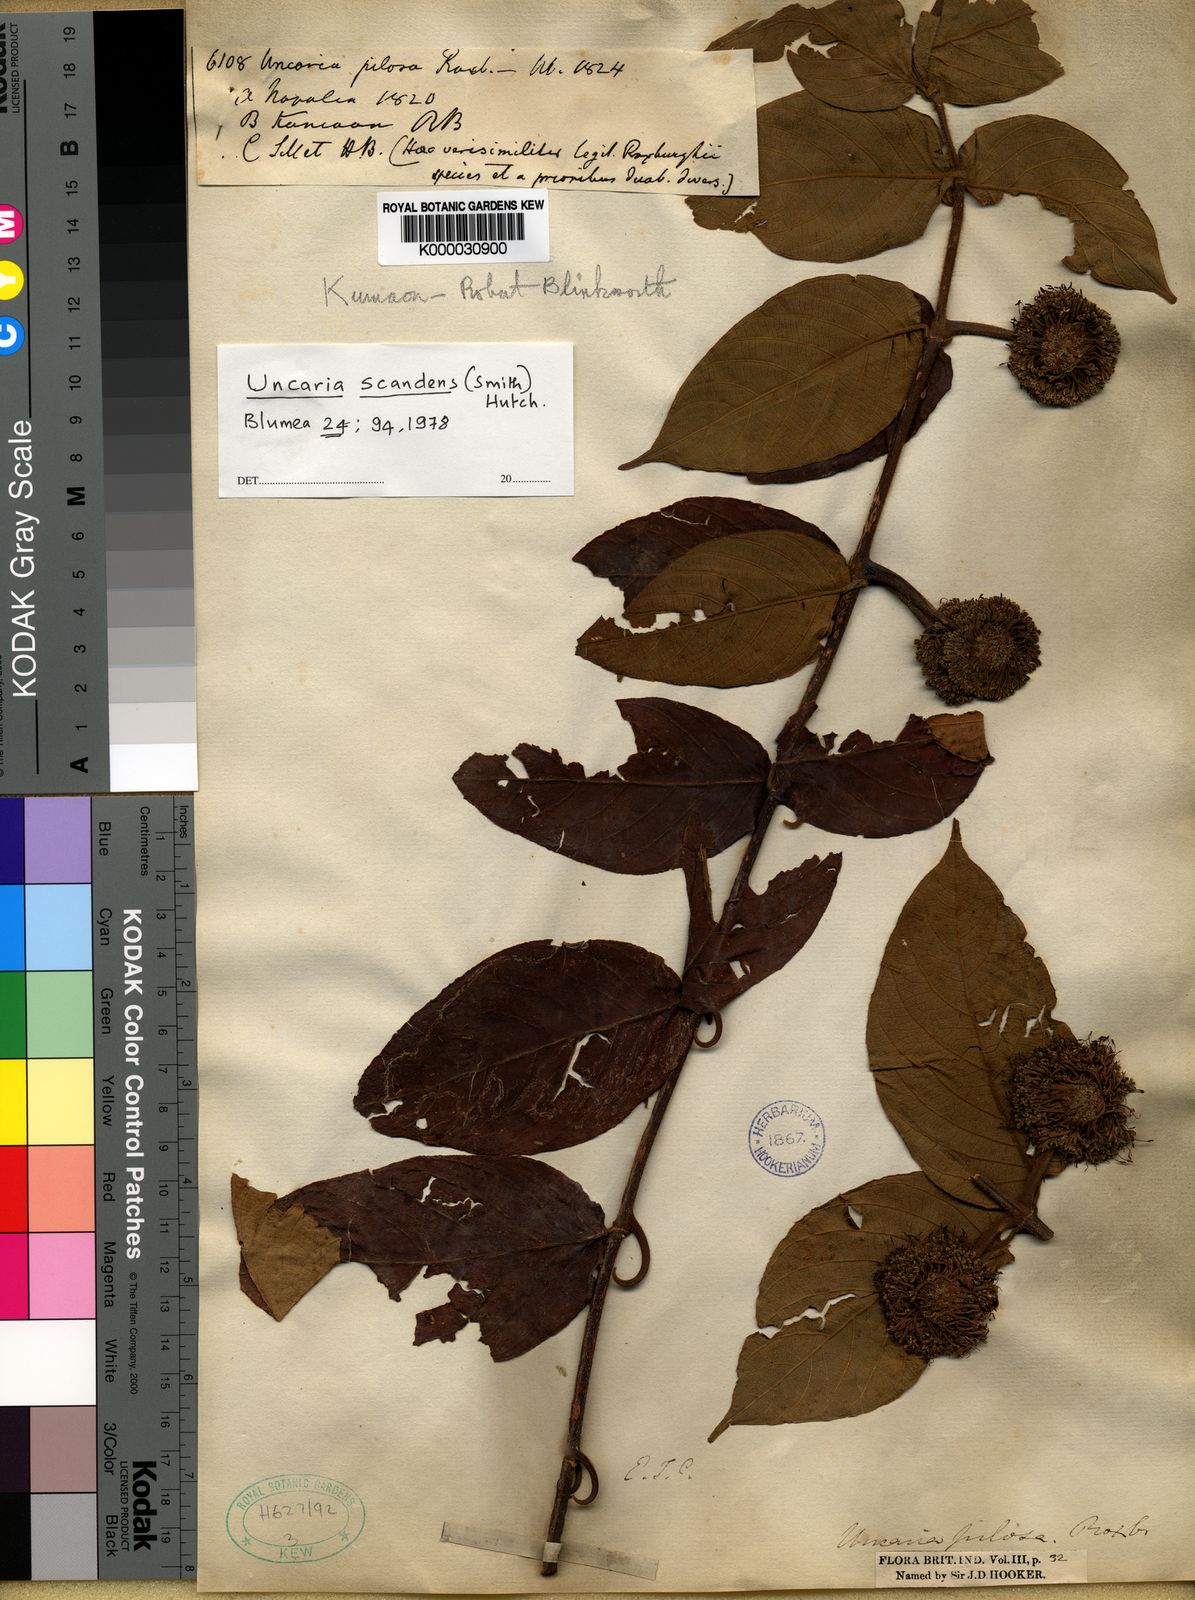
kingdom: Plantae
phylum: Tracheophyta
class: Magnoliopsida
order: Gentianales
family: Rubiaceae
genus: Uncaria
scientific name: Uncaria
